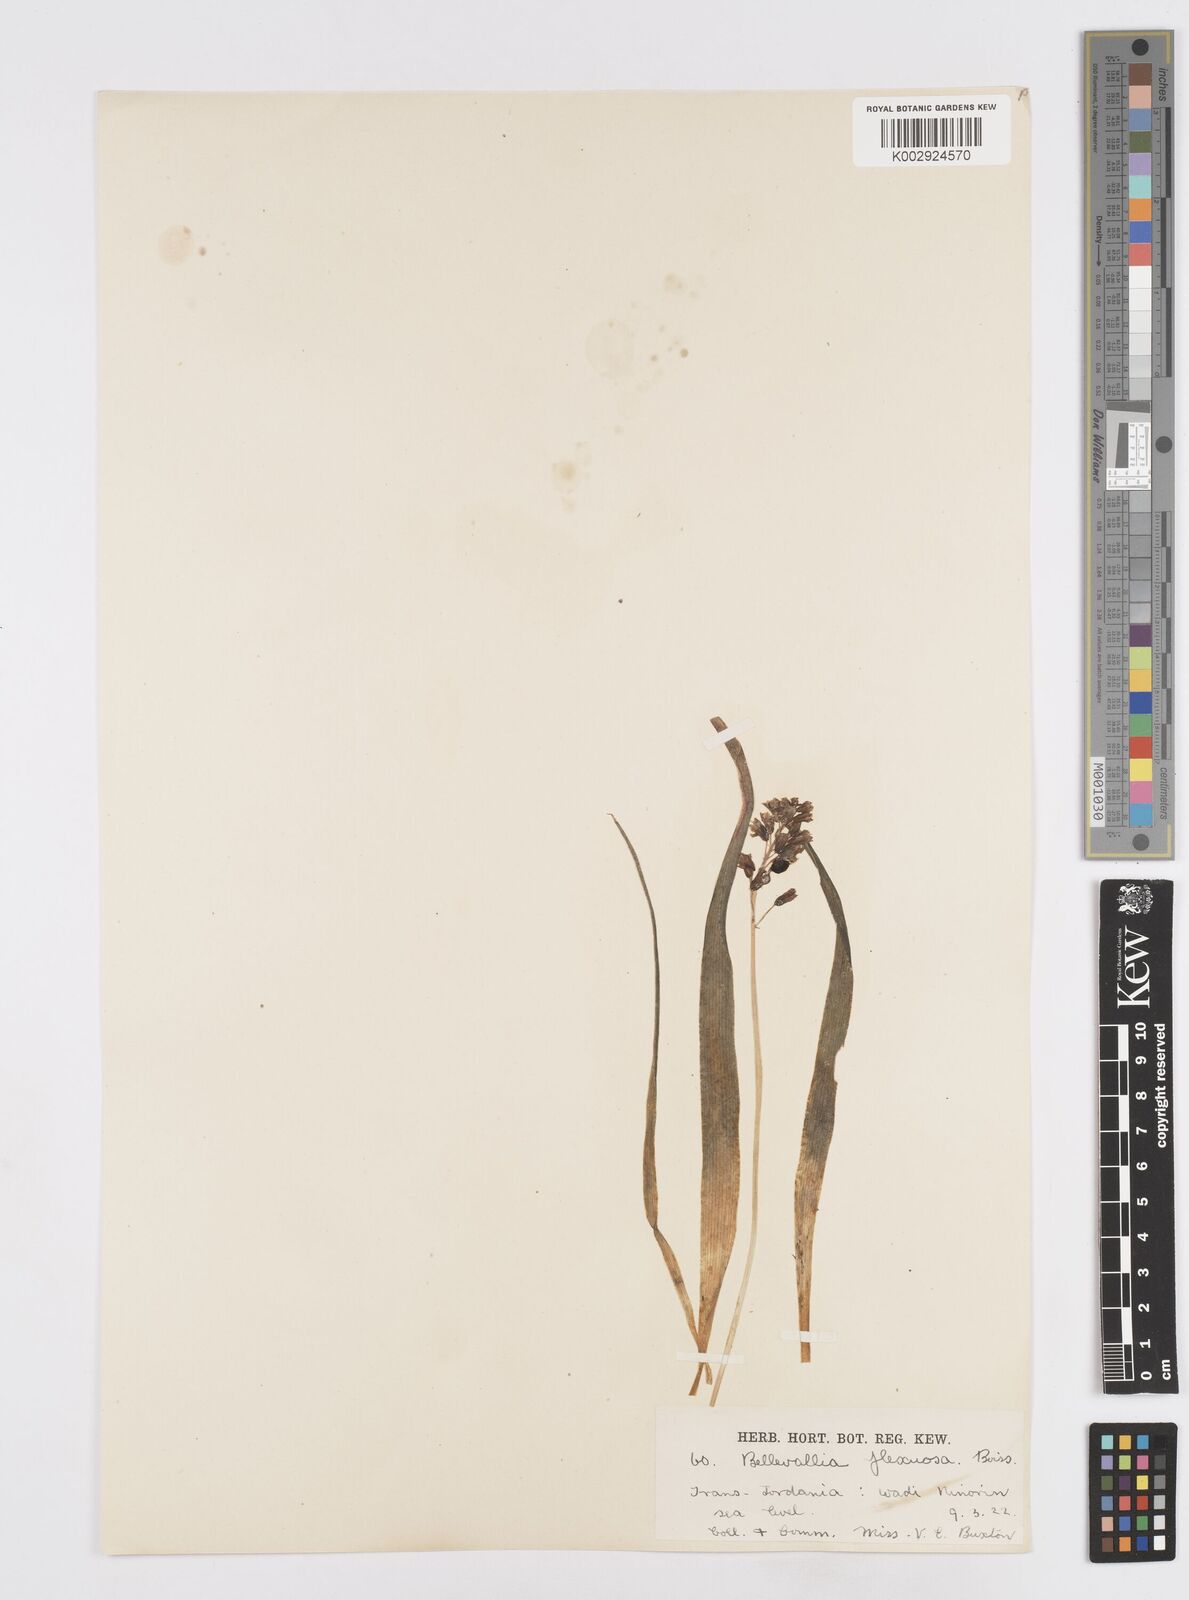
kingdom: Plantae
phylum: Tracheophyta
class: Liliopsida
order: Asparagales
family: Asparagaceae
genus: Bellevalia
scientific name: Bellevalia flexuosa
